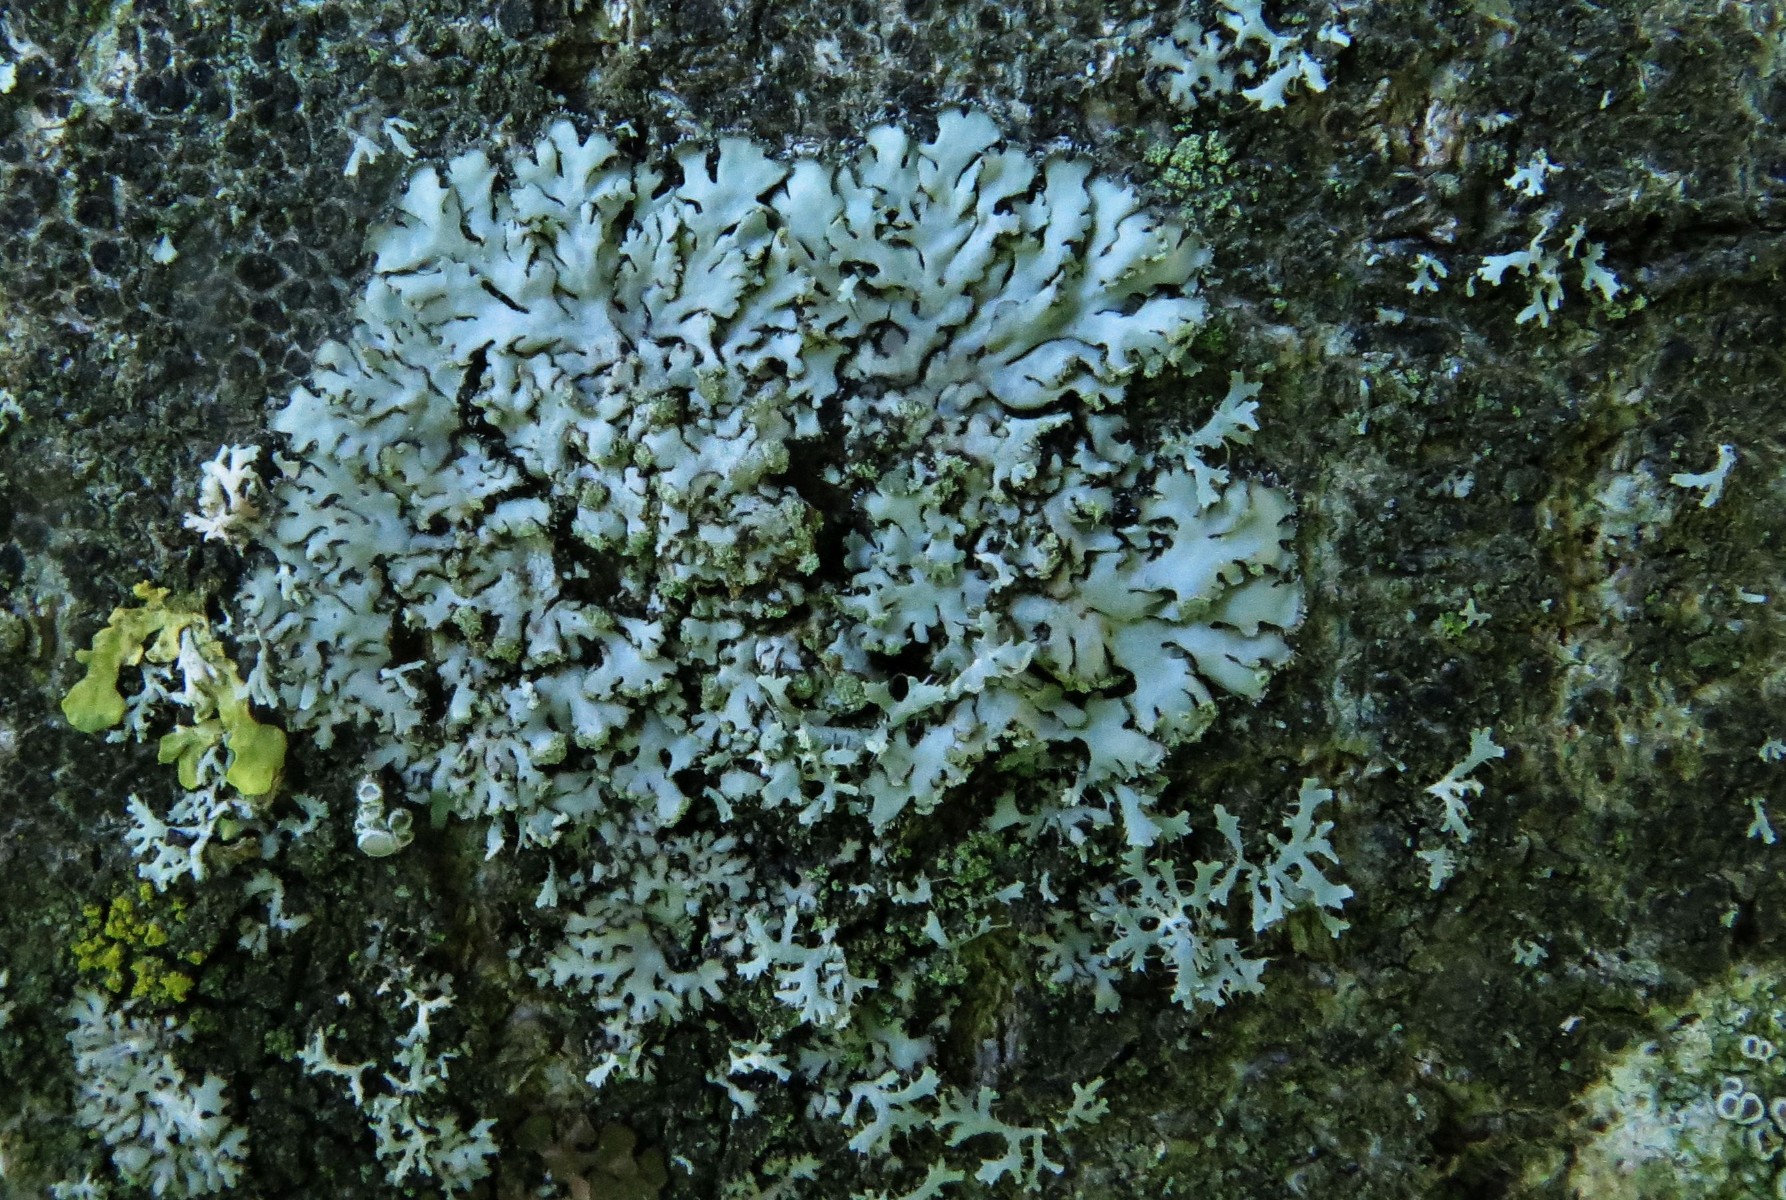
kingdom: Fungi
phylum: Ascomycota
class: Lecanoromycetes
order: Caliciales
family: Physciaceae
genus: Phaeophyscia
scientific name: Phaeophyscia orbicularis
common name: grågrøn rosetlav
